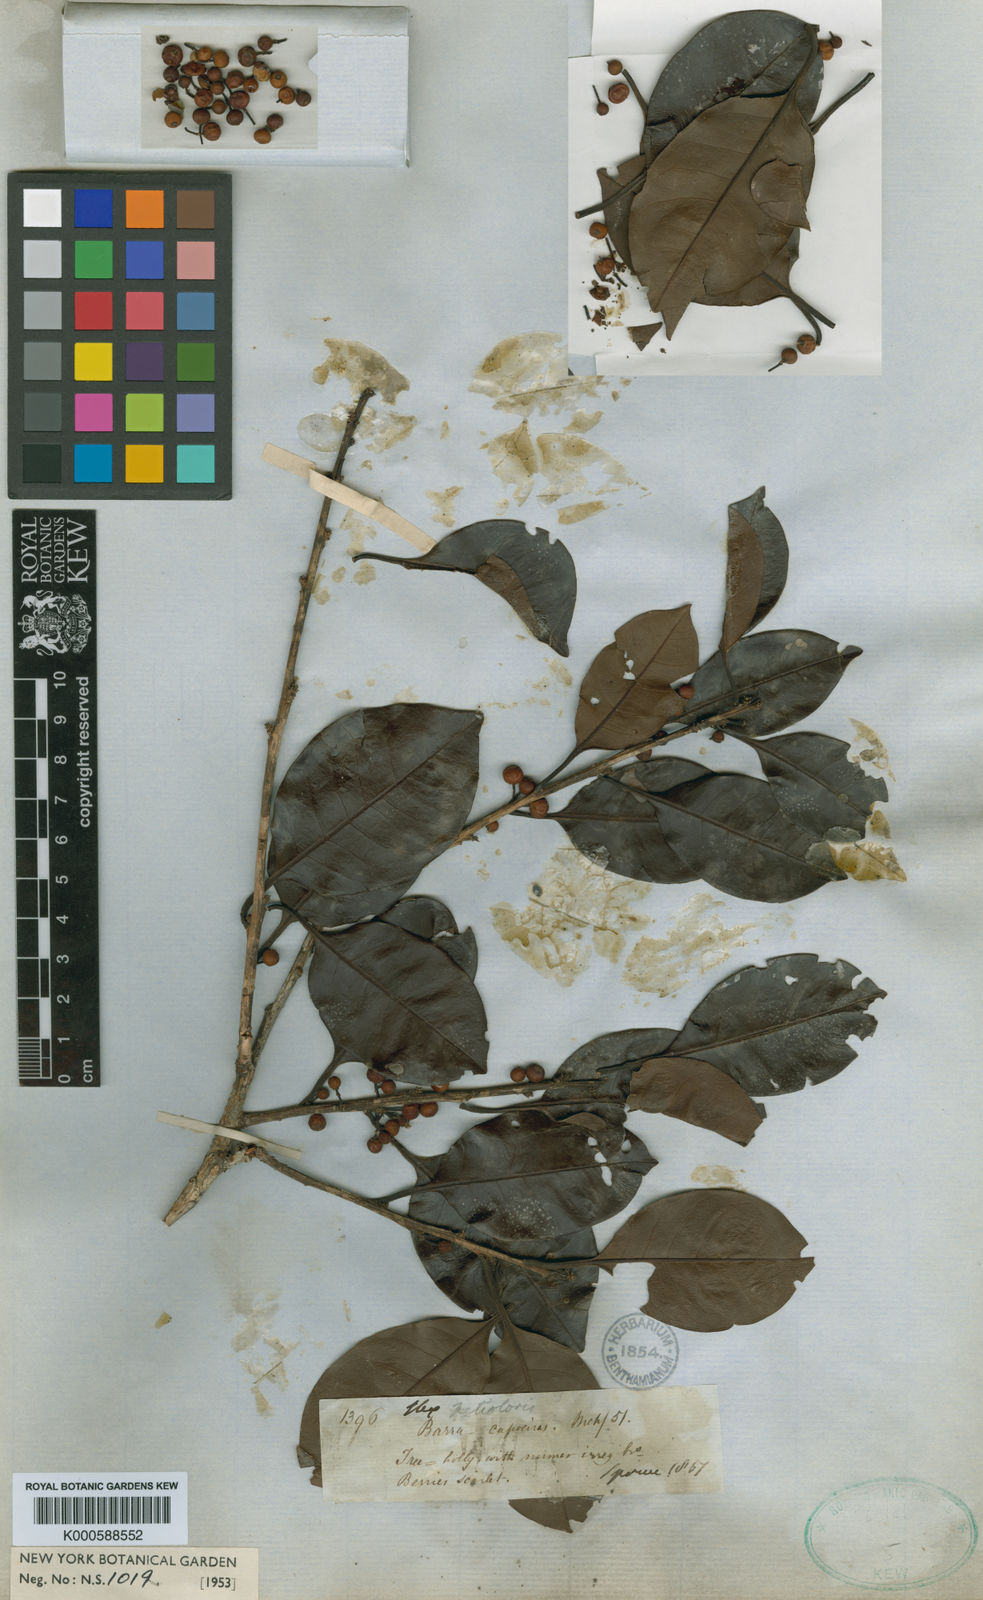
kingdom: Plantae
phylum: Tracheophyta
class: Magnoliopsida
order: Aquifoliales
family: Aquifoliaceae
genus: Ilex
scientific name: Ilex petiolaris
